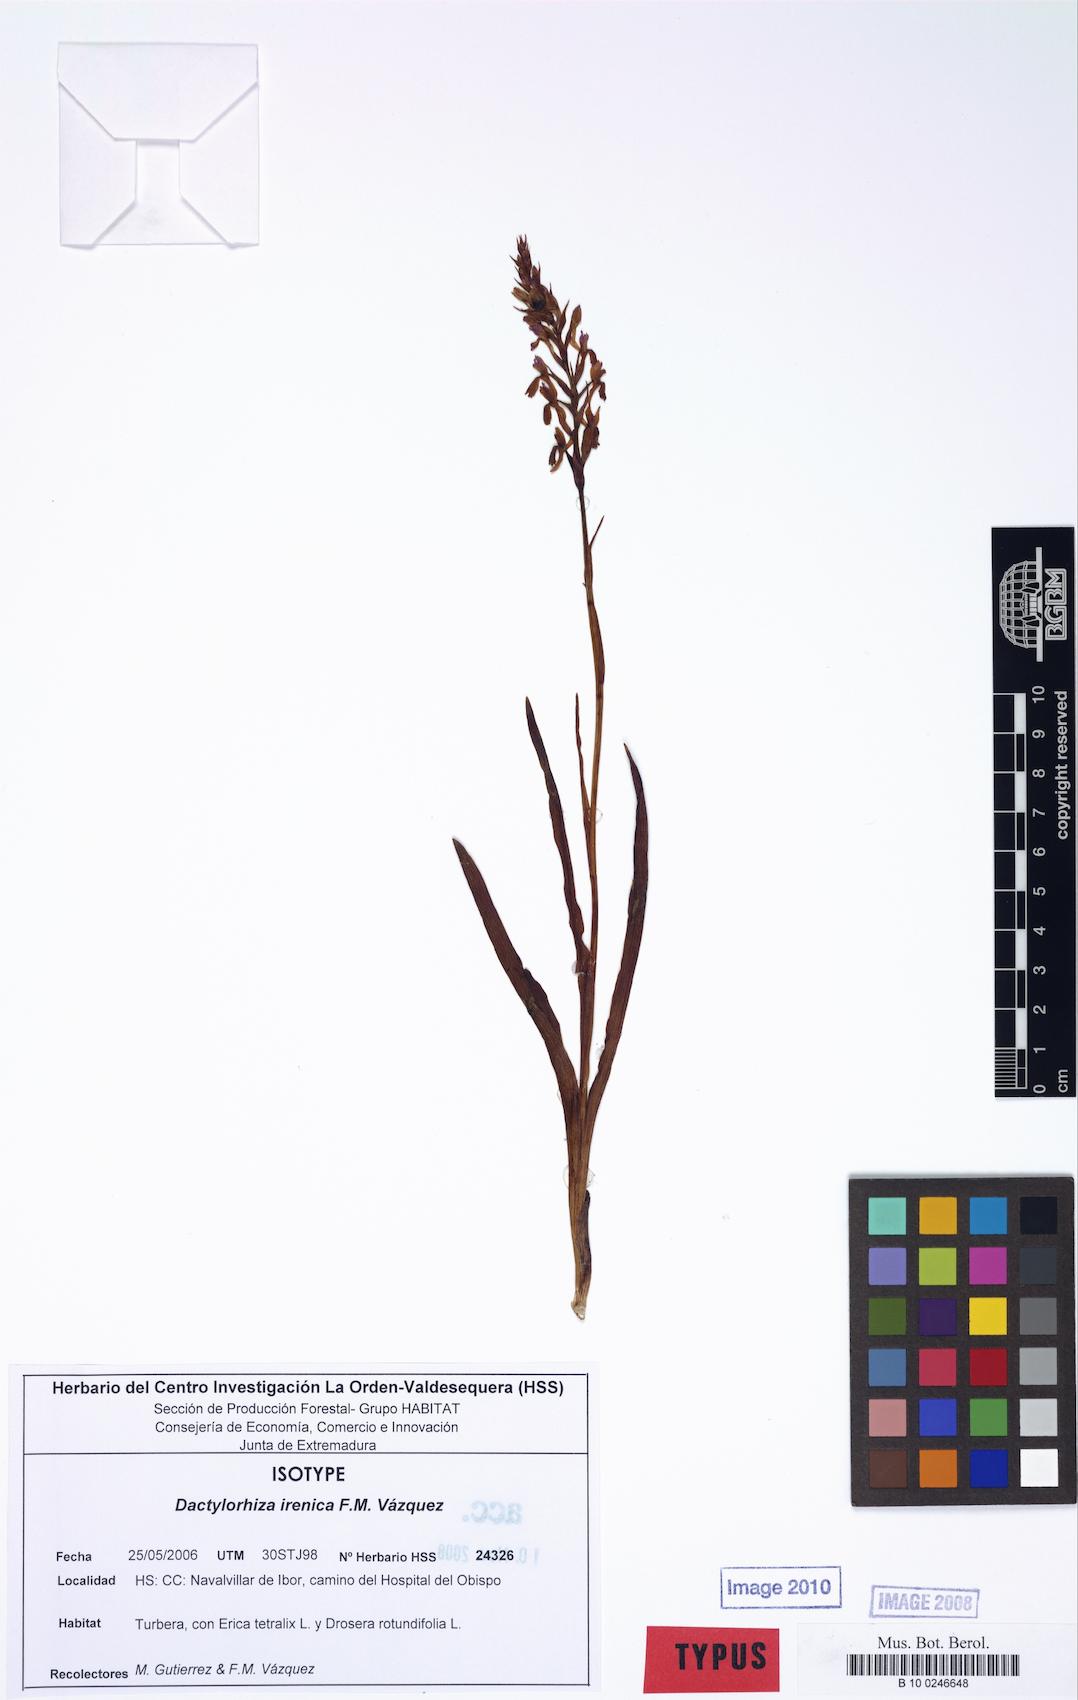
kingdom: Plantae
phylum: Tracheophyta
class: Liliopsida
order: Asparagales
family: Orchidaceae
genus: Dactylorhiza
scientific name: Dactylorhiza majalis
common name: Marsh orchid
